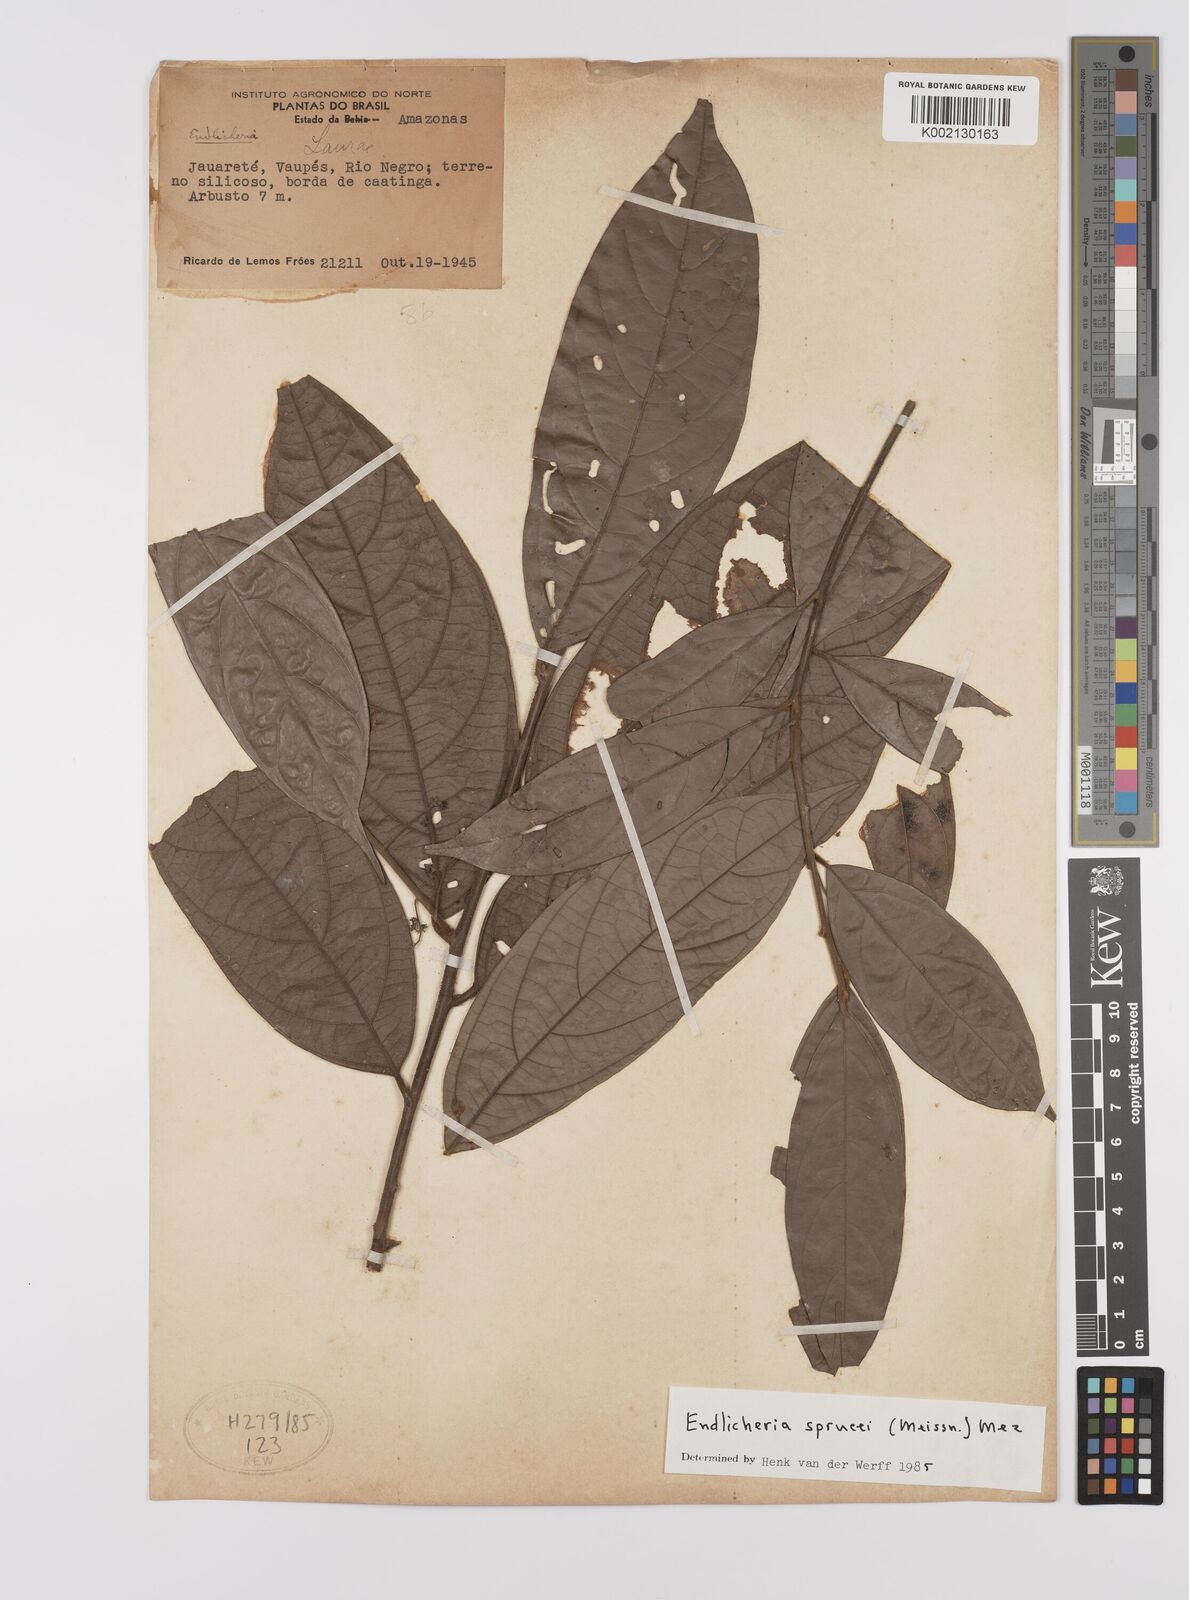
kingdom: Plantae
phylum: Tracheophyta
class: Magnoliopsida
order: Laurales
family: Lauraceae
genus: Endlicheria
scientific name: Endlicheria sprucei
